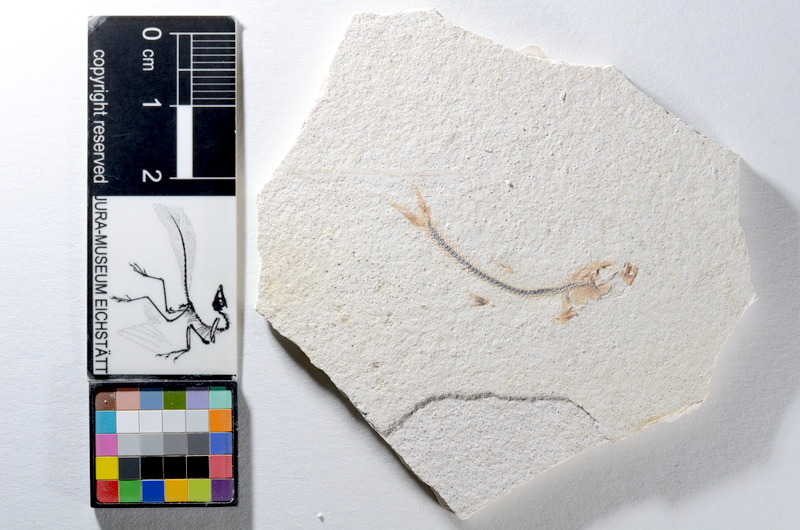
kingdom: Animalia
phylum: Chordata
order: Salmoniformes
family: Orthogonikleithridae
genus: Orthogonikleithrus
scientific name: Orthogonikleithrus hoelli
